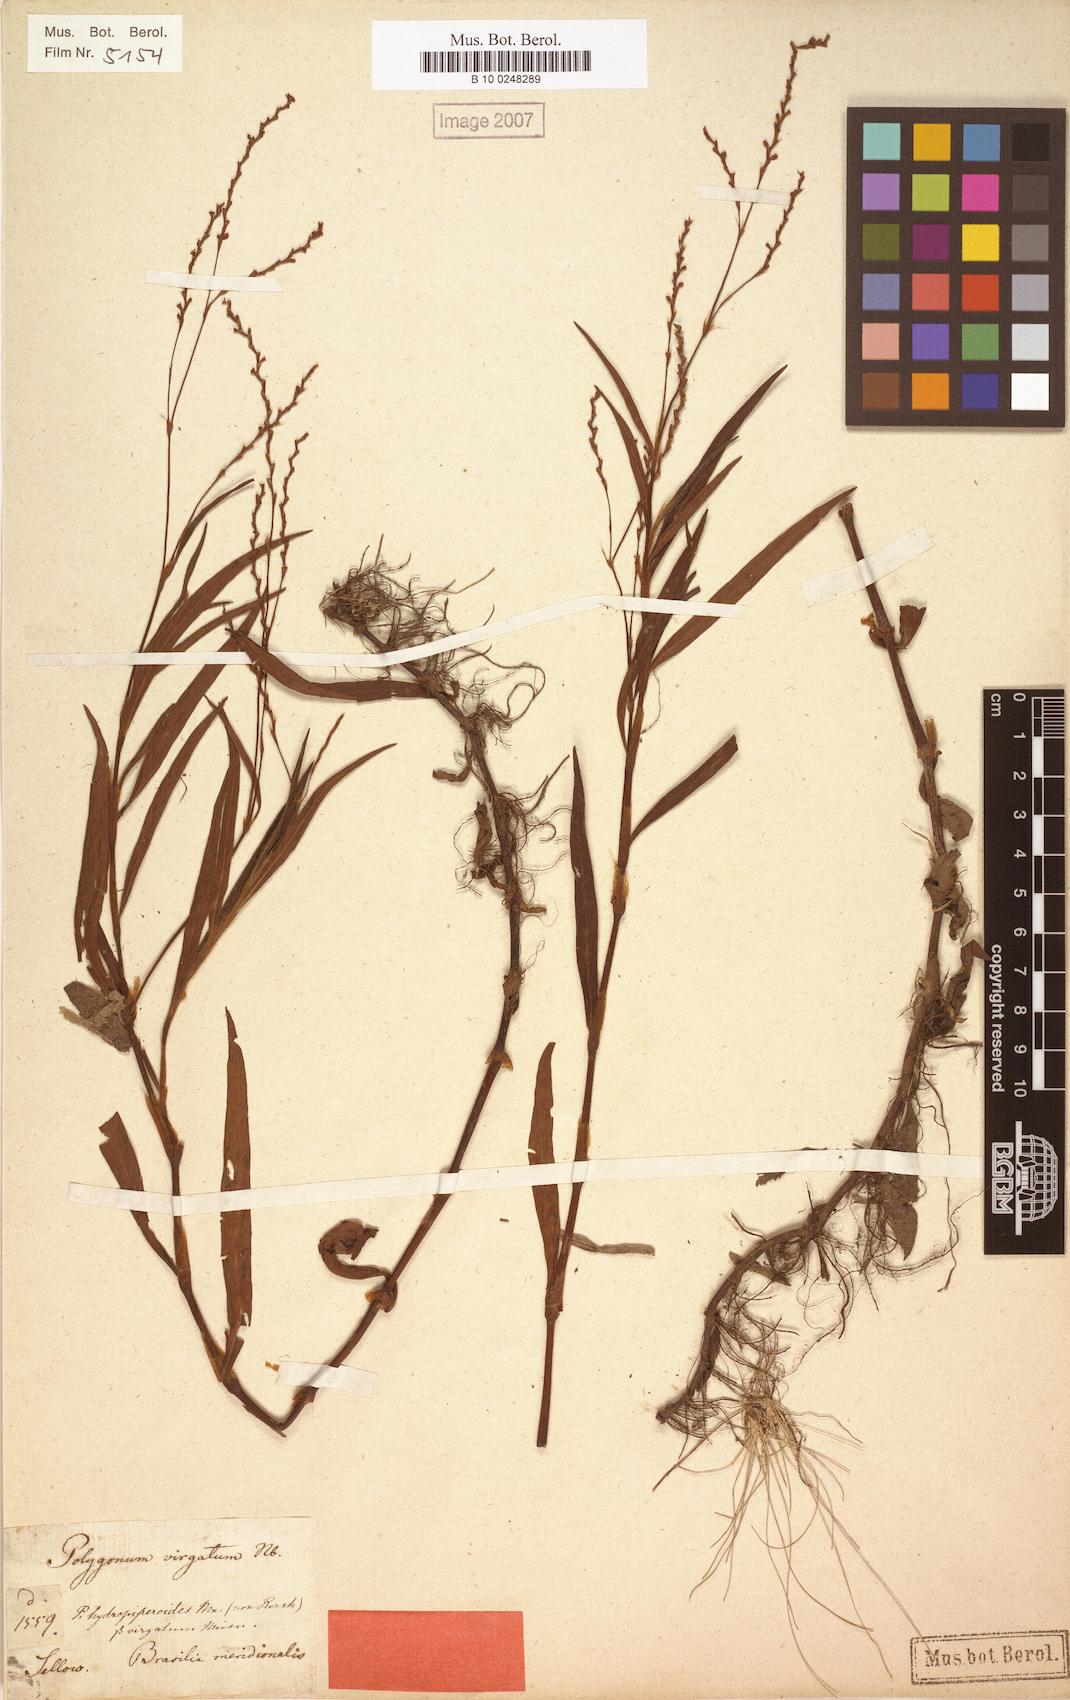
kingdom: Plantae
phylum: Tracheophyta
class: Magnoliopsida
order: Caryophyllales
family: Polygonaceae
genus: Persicaria
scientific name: Persicaria hydropiperoides
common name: Swamp smartweed
